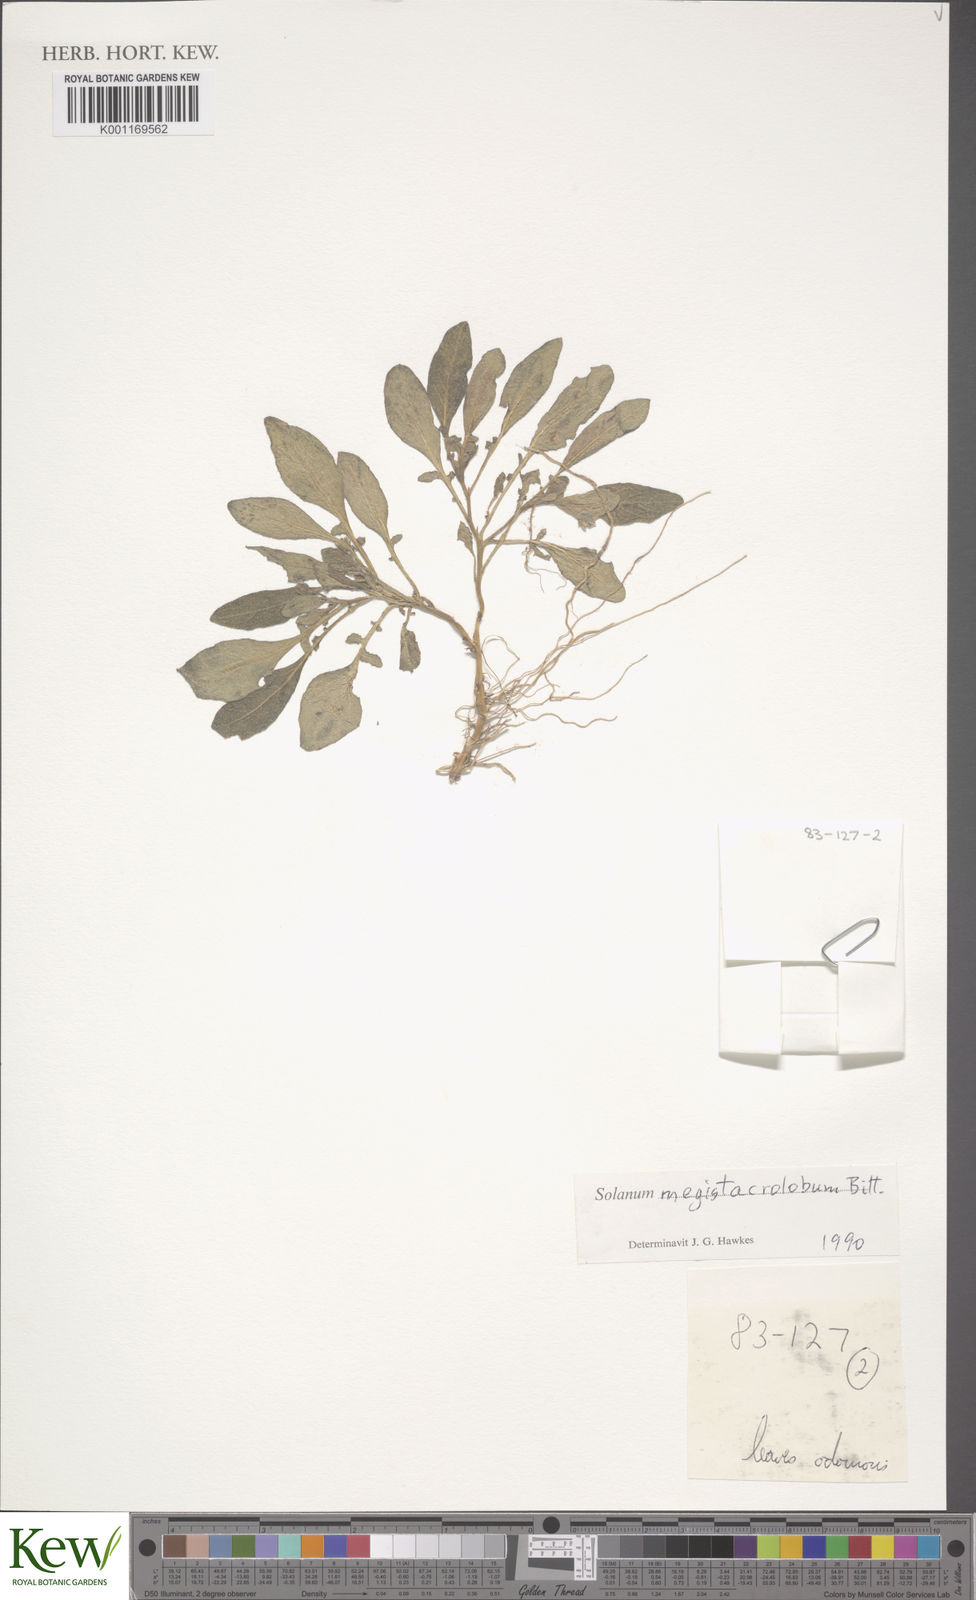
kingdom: Plantae
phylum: Tracheophyta
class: Magnoliopsida
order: Solanales
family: Solanaceae
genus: Solanum
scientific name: Solanum boliviense
